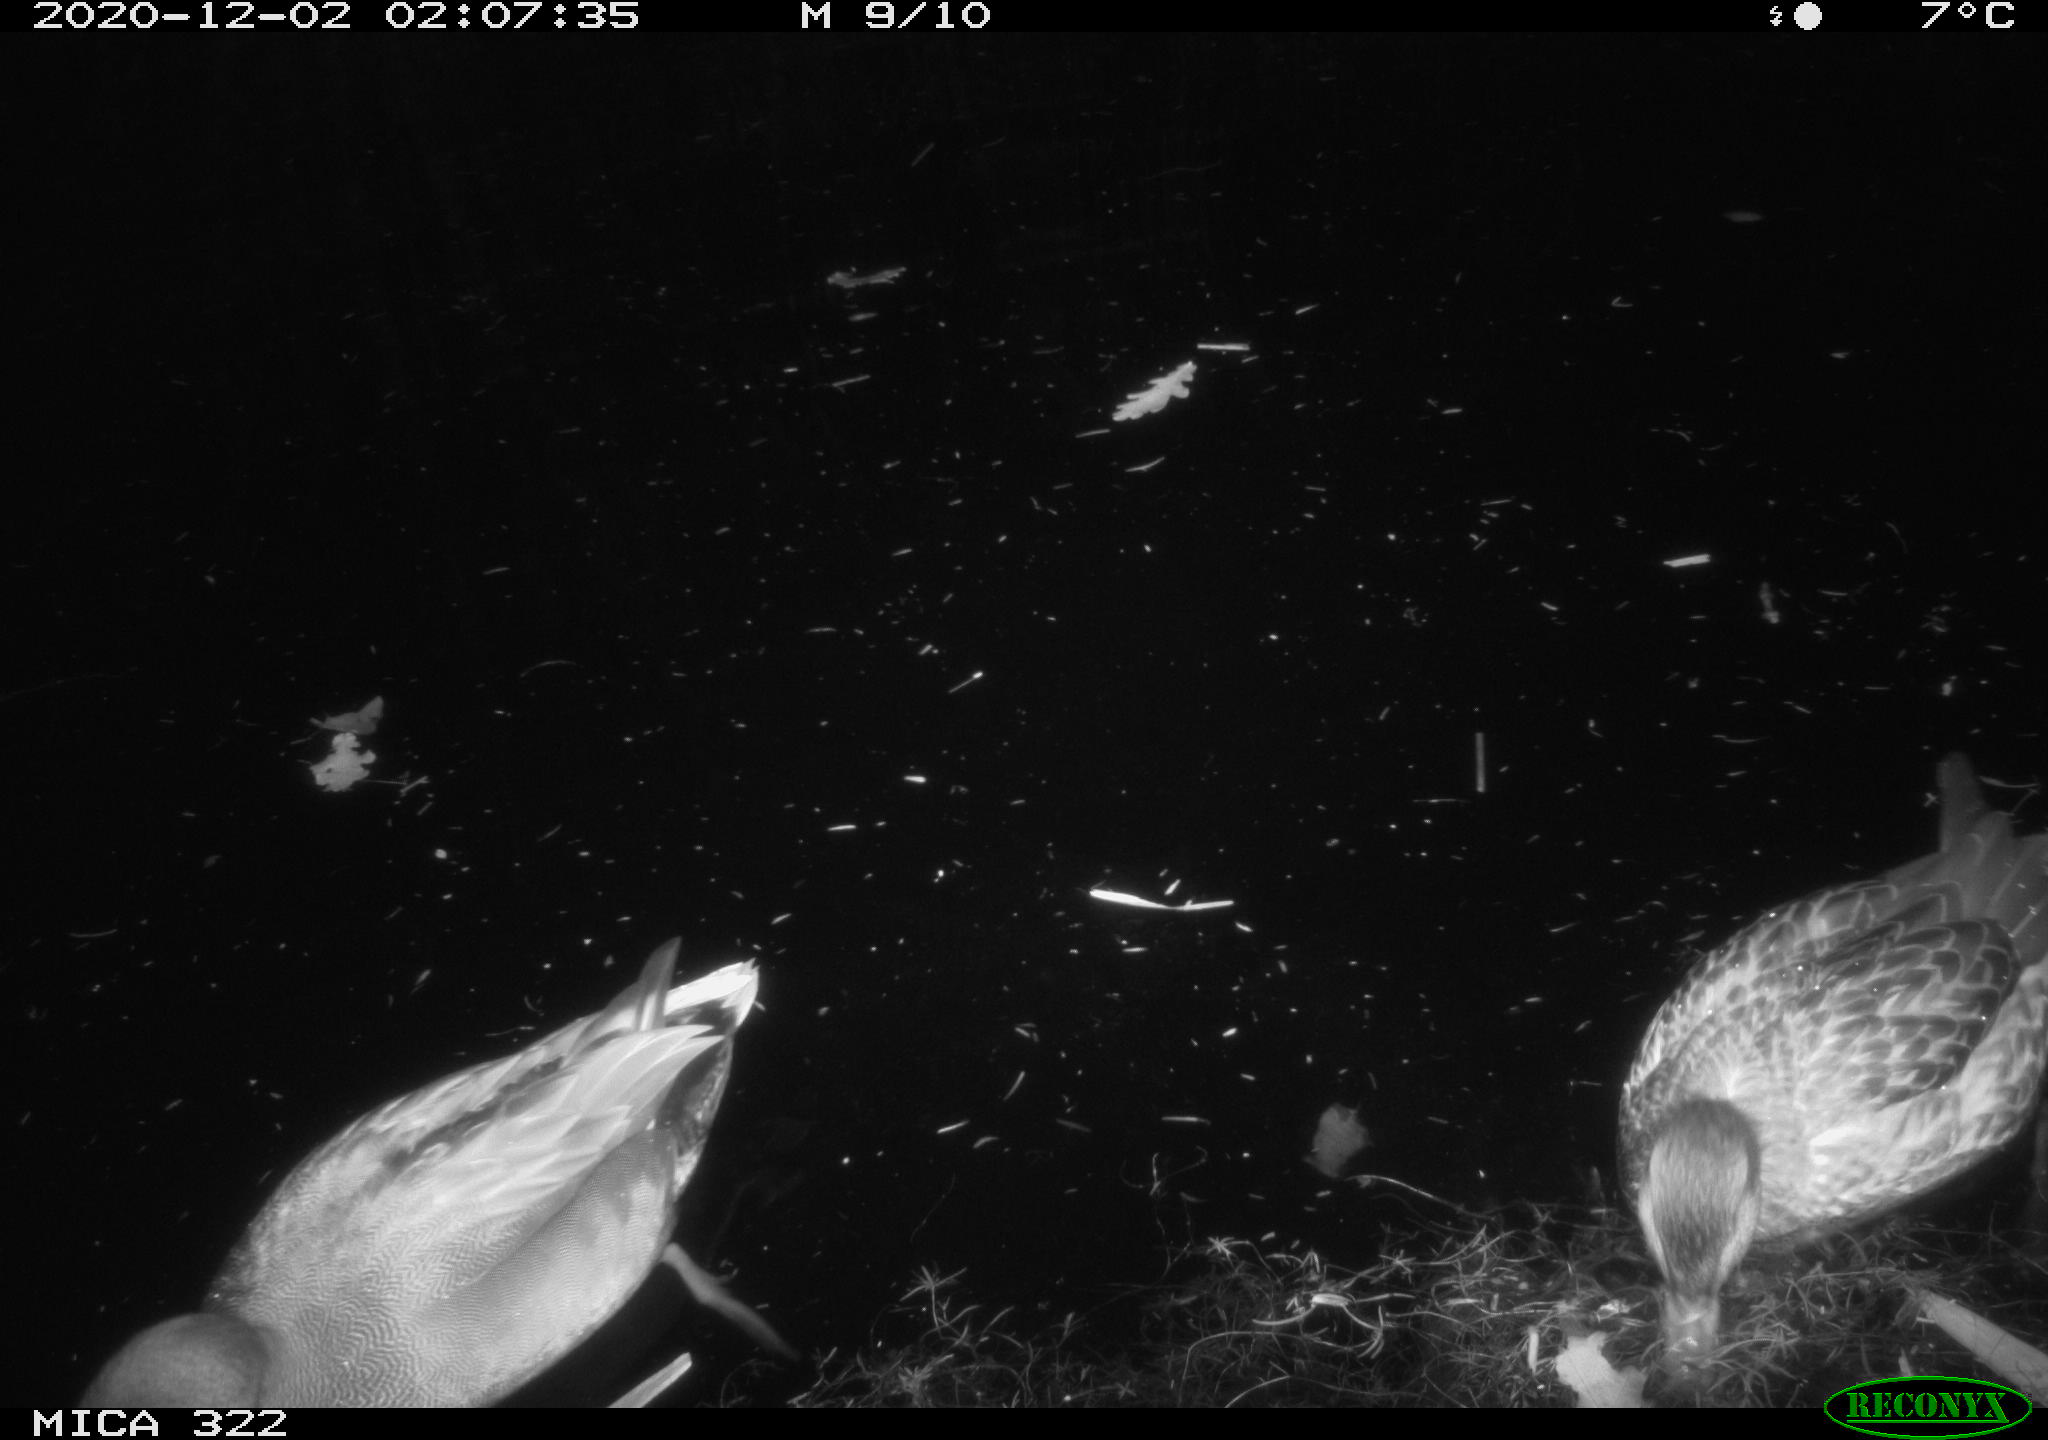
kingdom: Animalia
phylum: Chordata
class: Aves
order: Anseriformes
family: Anatidae
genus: Anas
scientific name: Anas platyrhynchos
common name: Mallard
